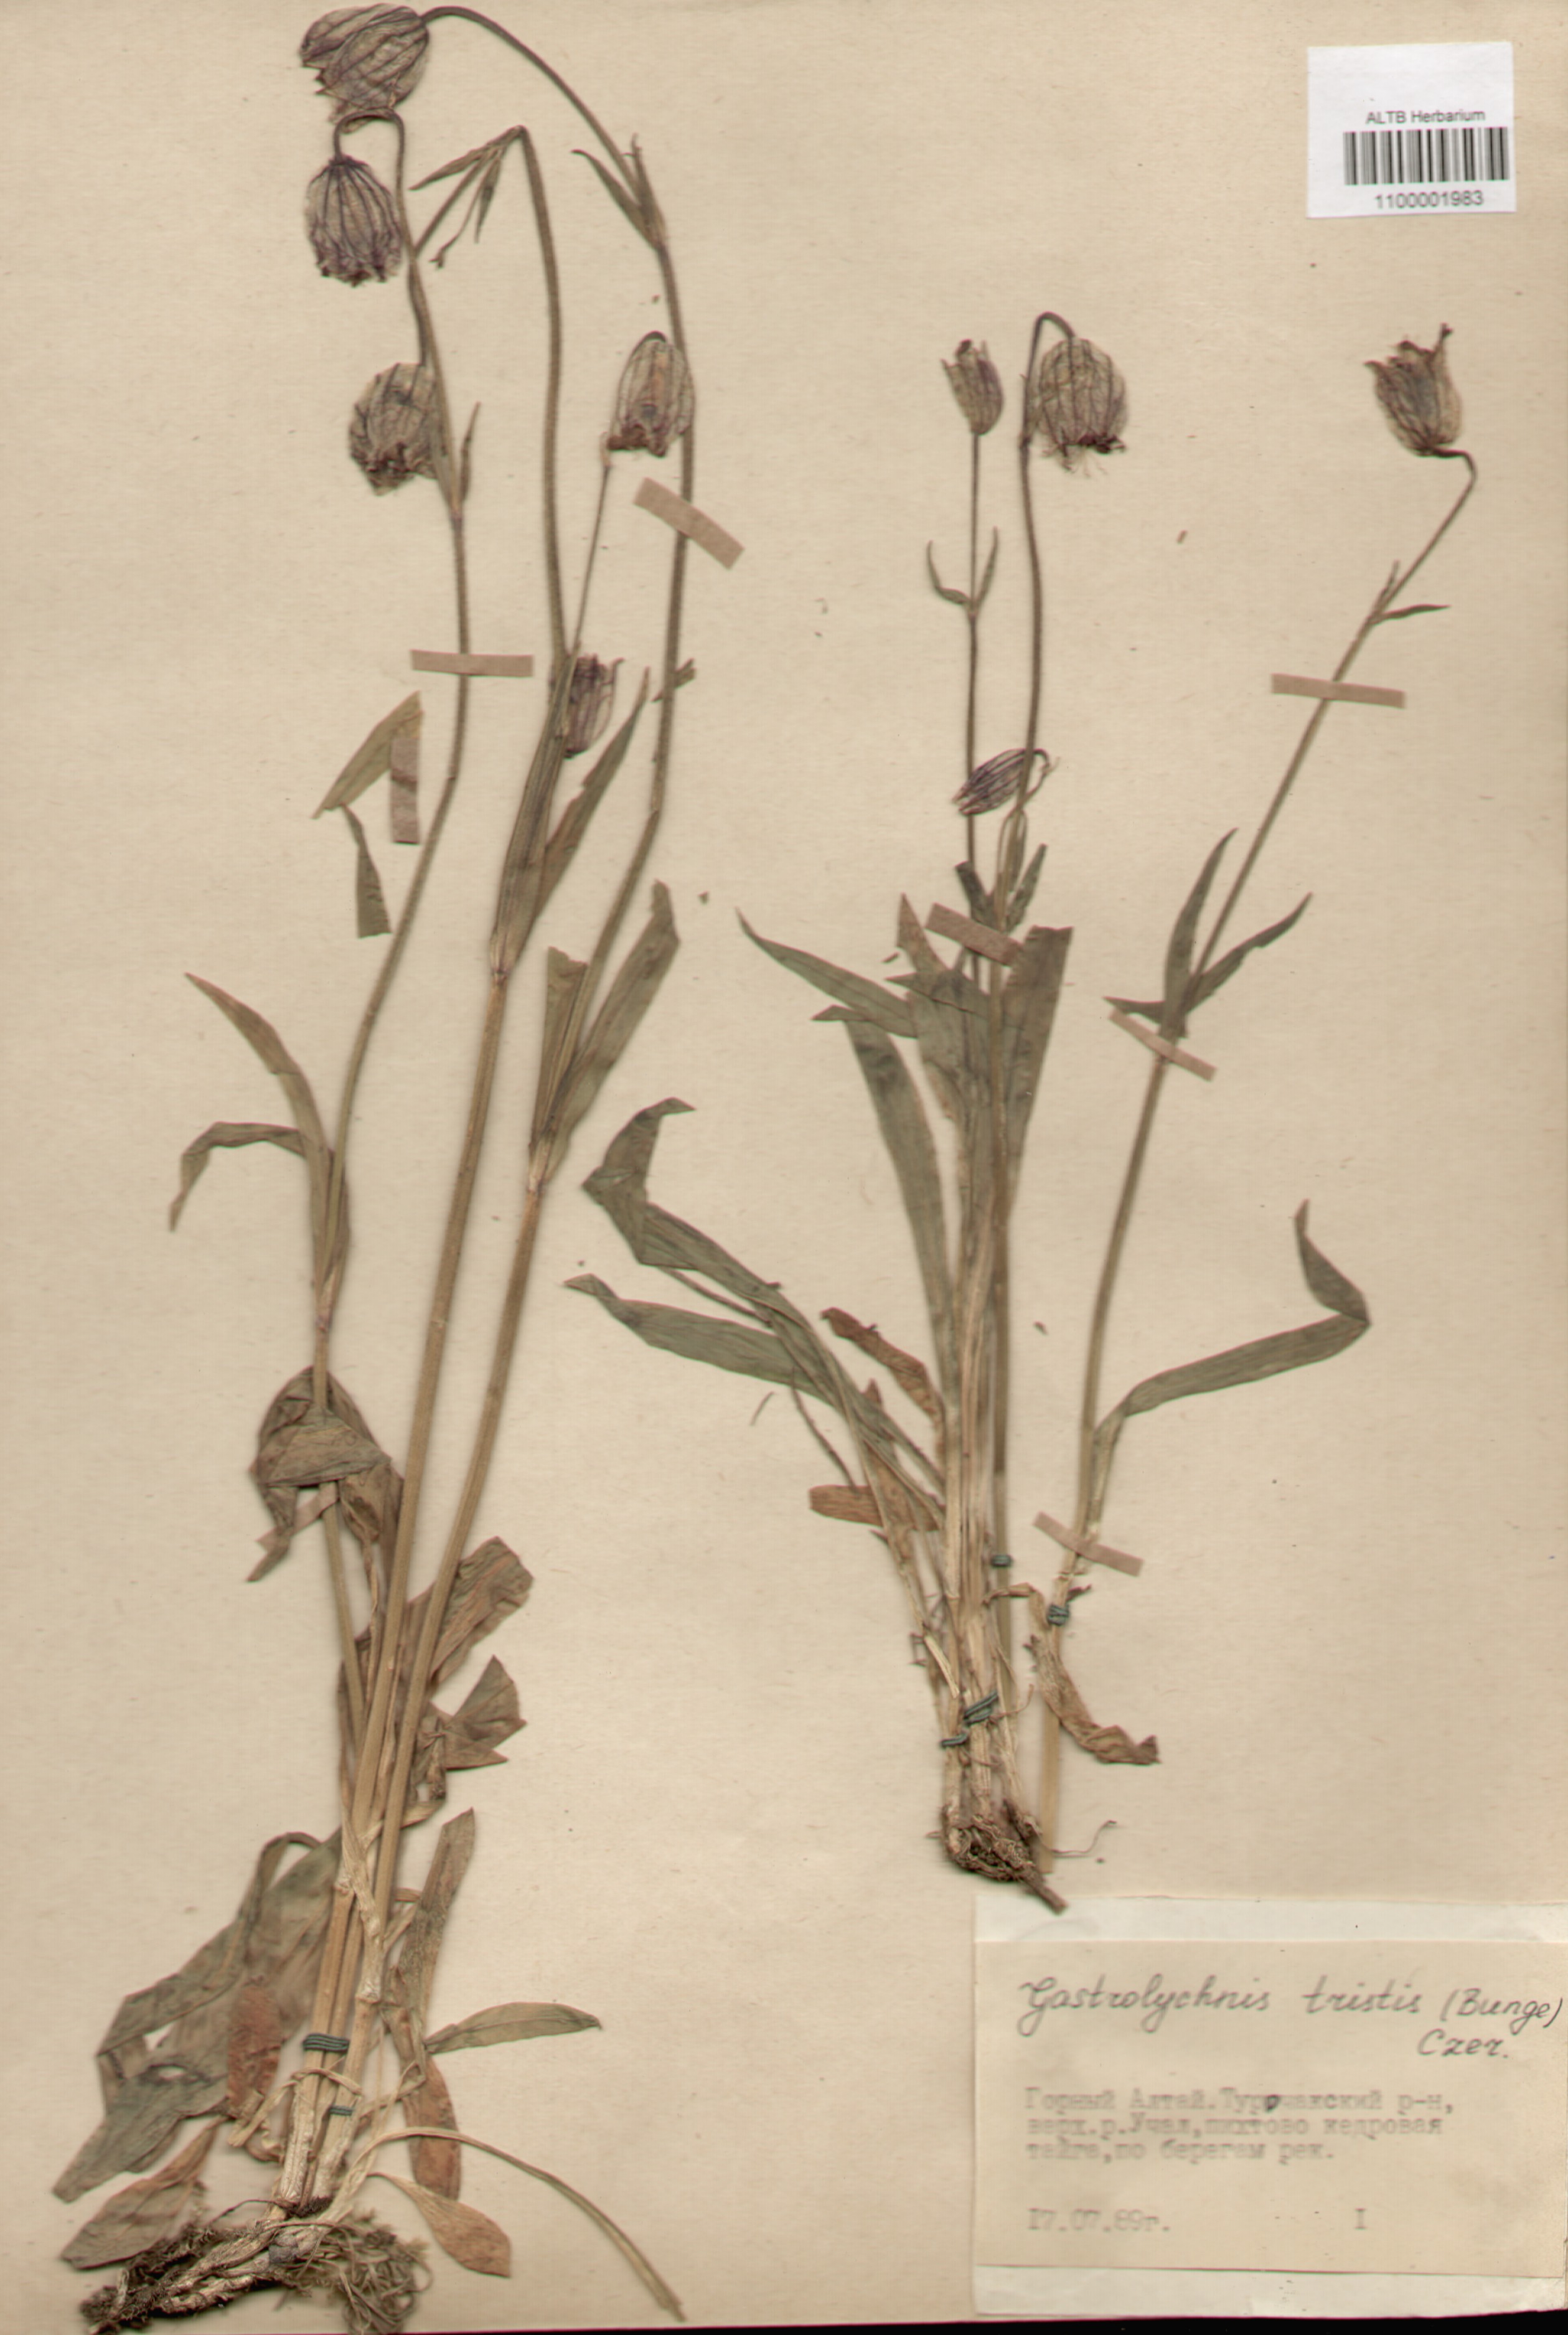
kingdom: Plantae
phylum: Tracheophyta
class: Magnoliopsida
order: Caryophyllales
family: Caryophyllaceae
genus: Silene
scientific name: Silene bungei
